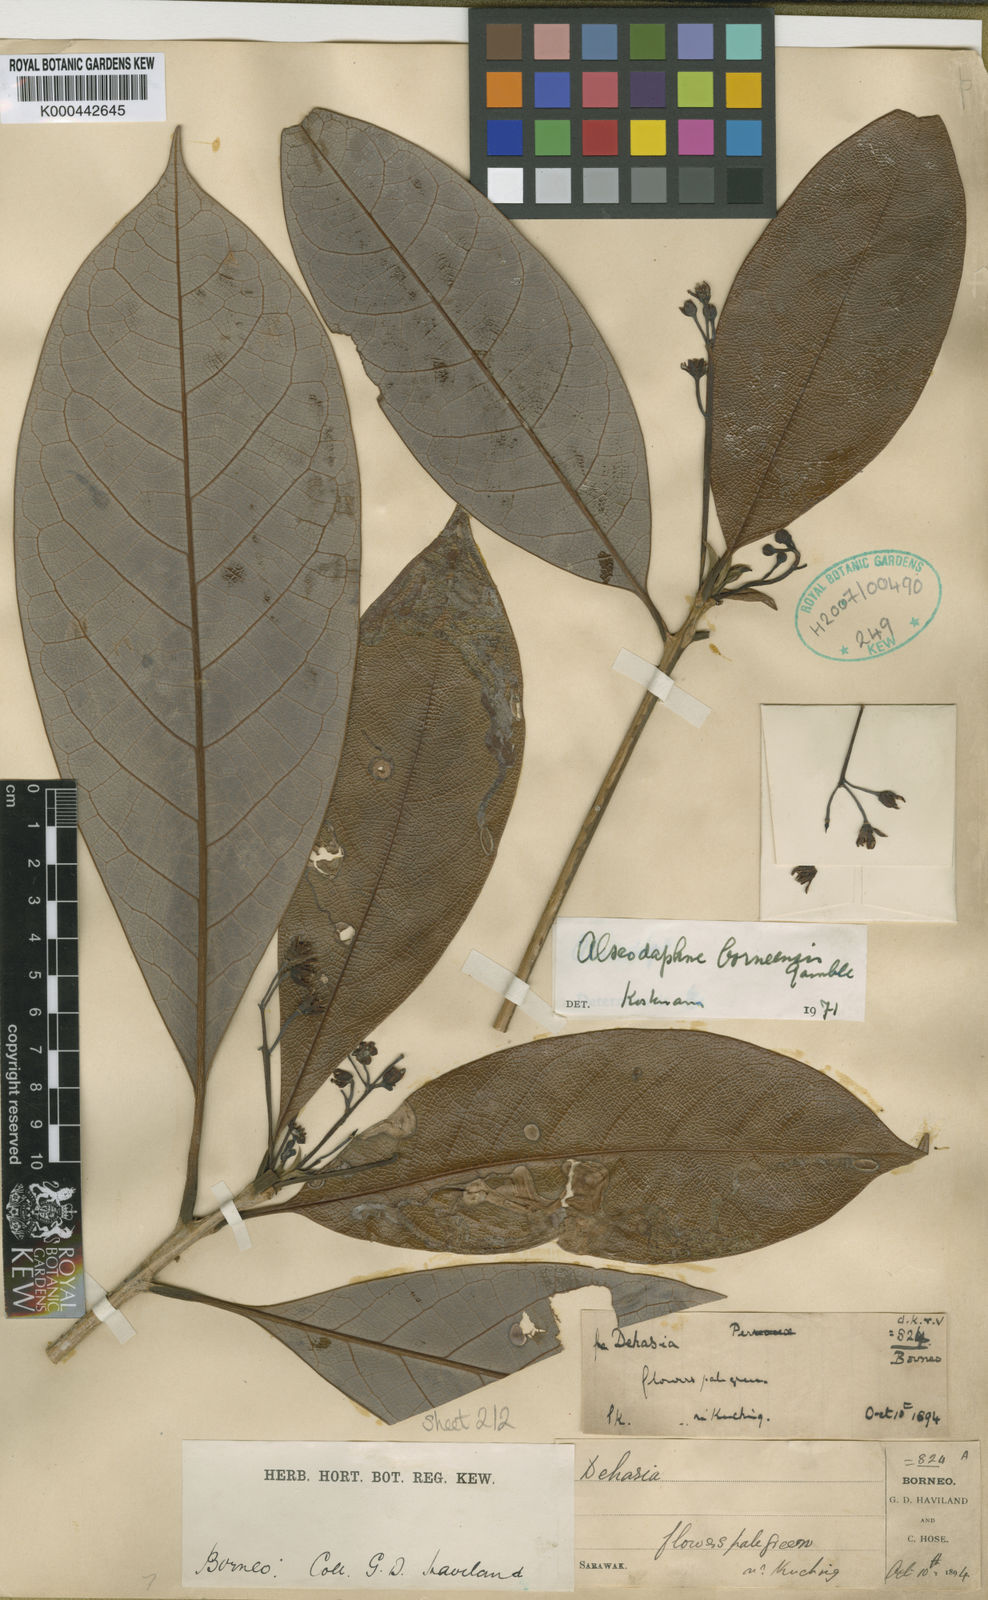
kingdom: Plantae
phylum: Tracheophyta
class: Magnoliopsida
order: Laurales
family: Lauraceae
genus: Alseodaphne
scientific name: Alseodaphne borneensis
